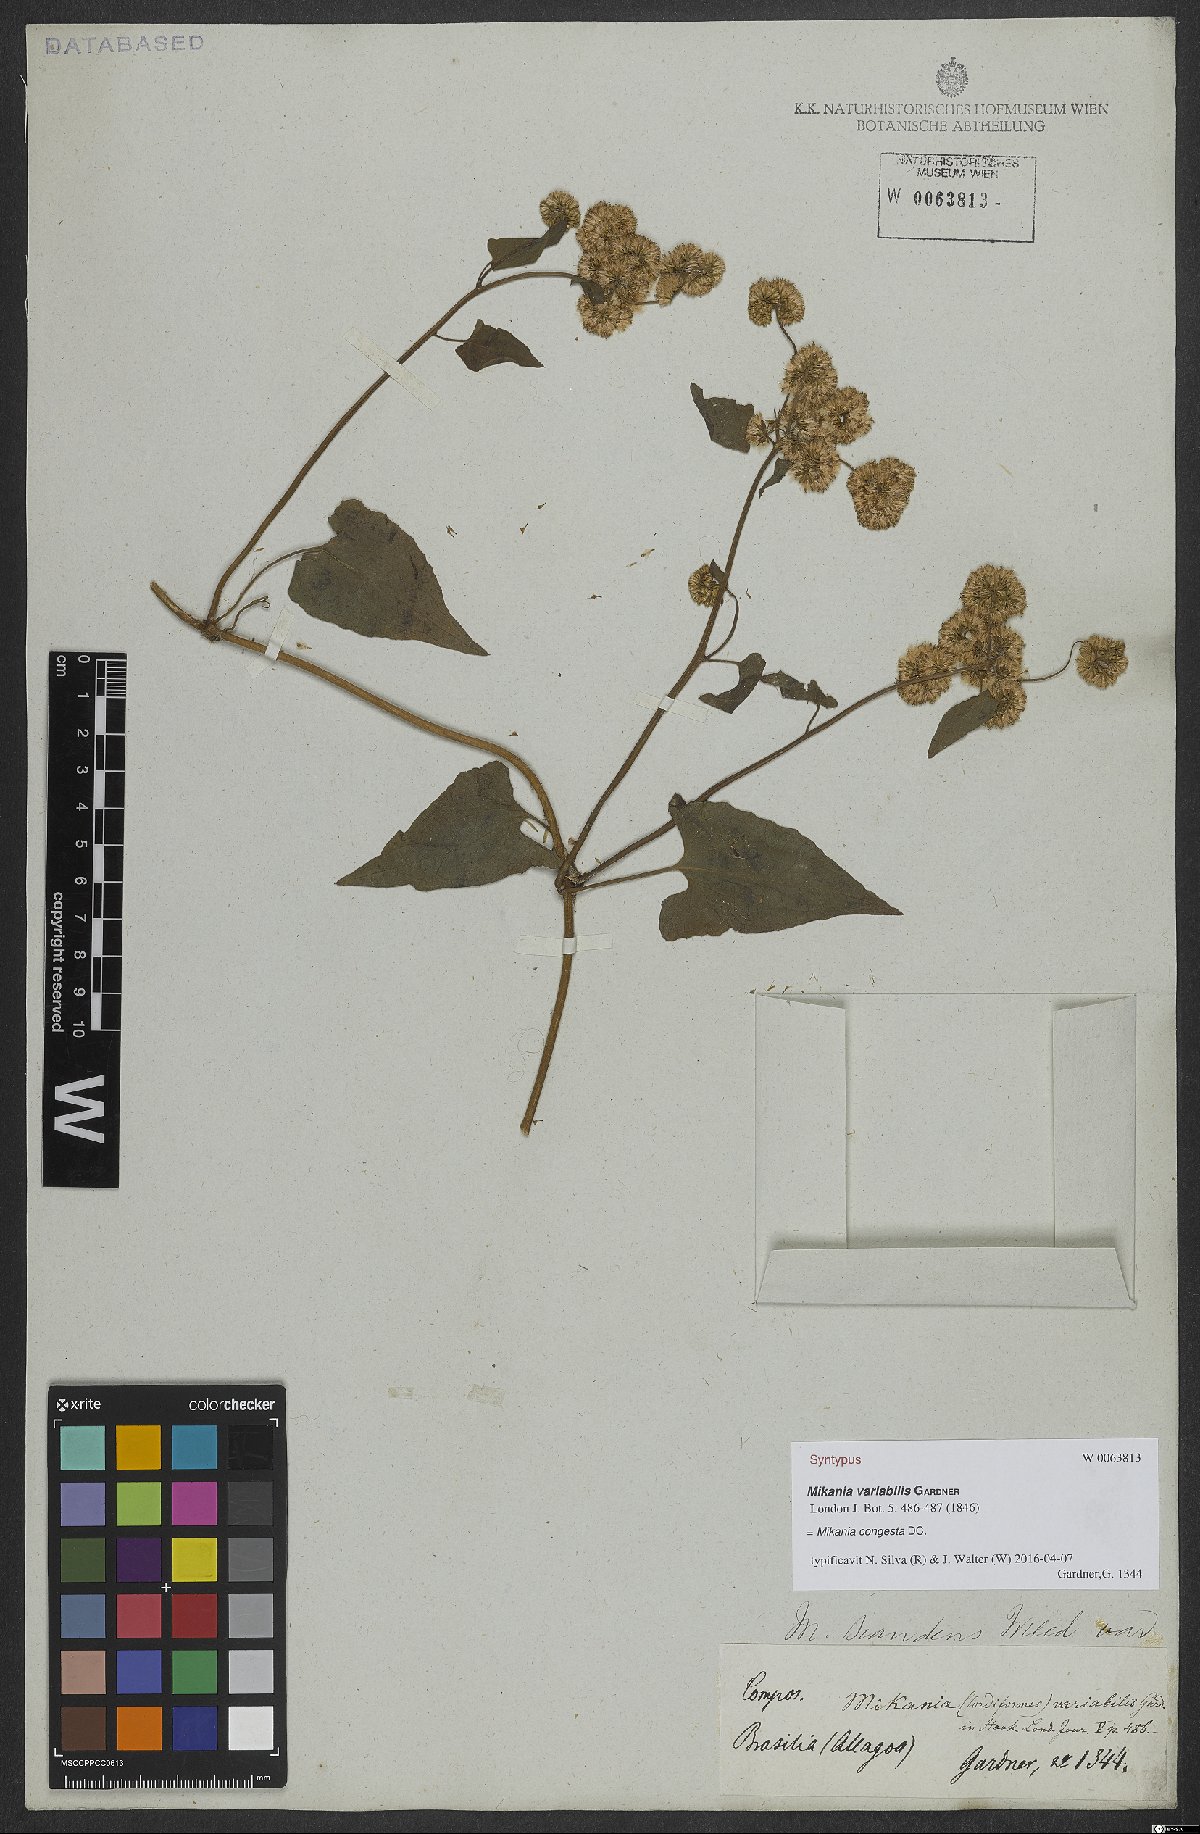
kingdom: Plantae
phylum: Tracheophyta
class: Magnoliopsida
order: Asterales
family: Asteraceae
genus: Mikania
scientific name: Mikania congesta
